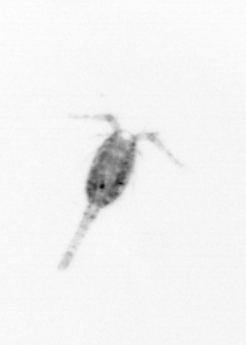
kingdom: Animalia
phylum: Arthropoda
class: Copepoda
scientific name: Copepoda
